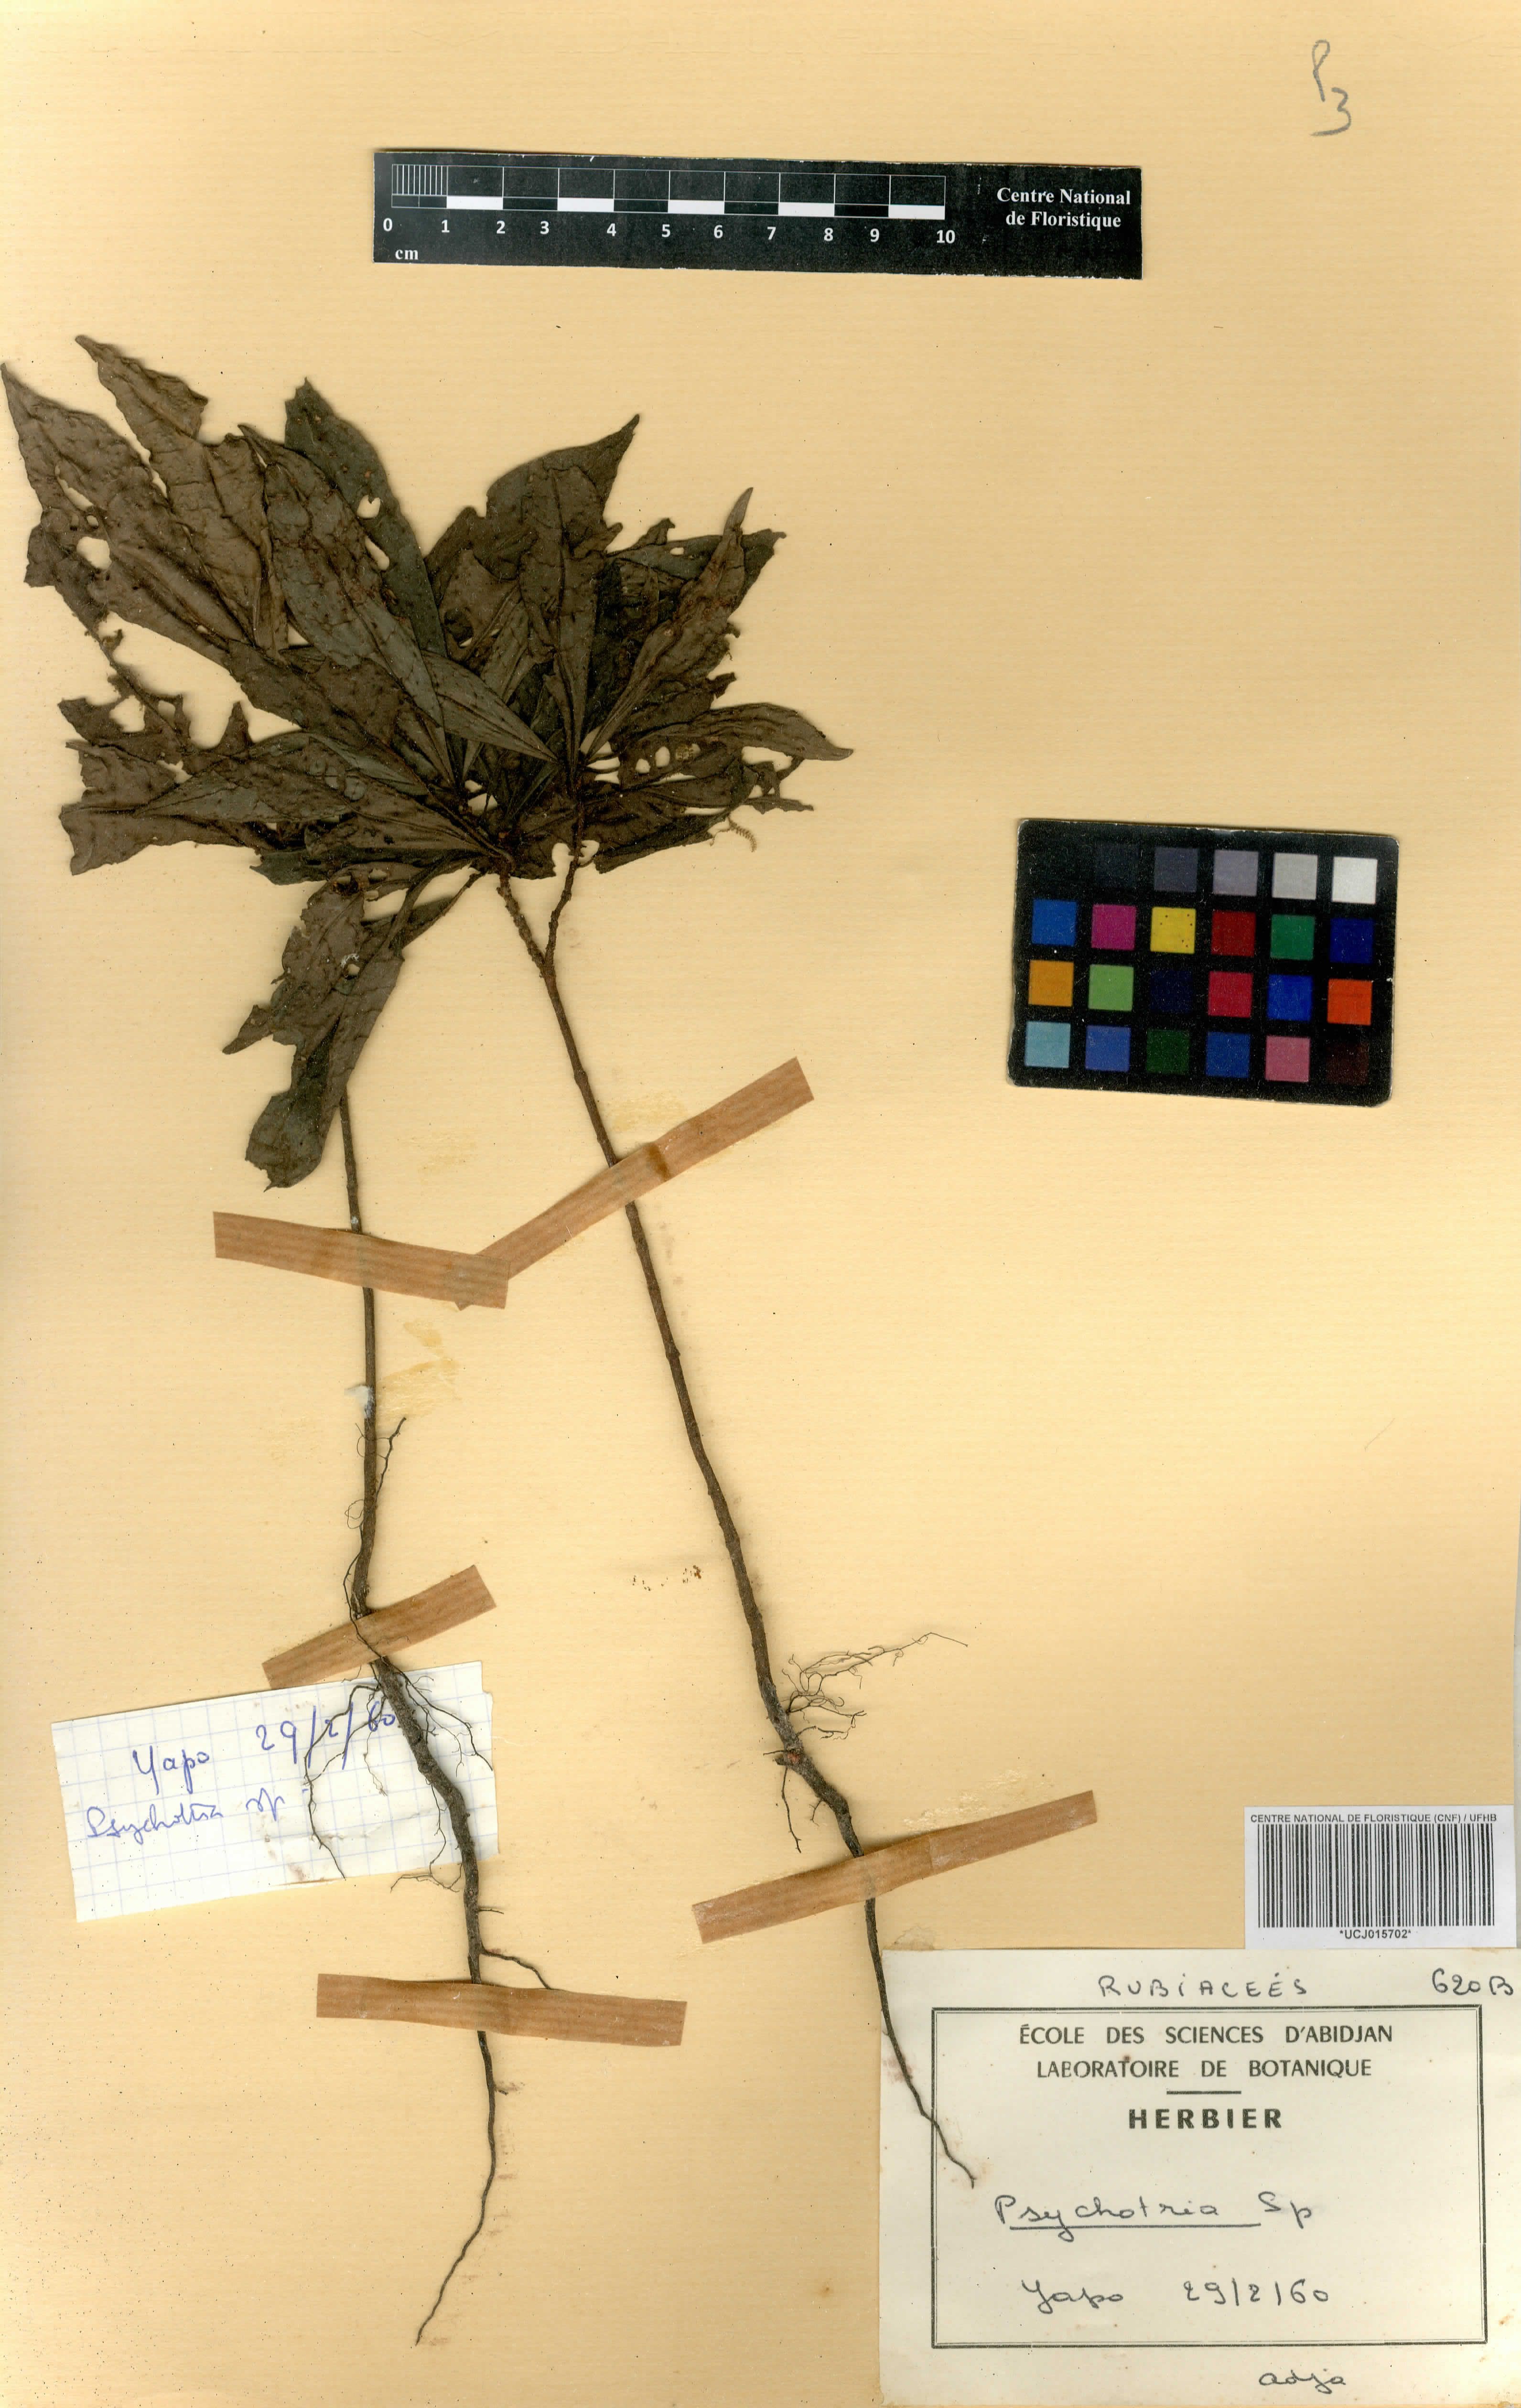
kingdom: Plantae
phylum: Tracheophyta
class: Magnoliopsida
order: Gentianales
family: Rubiaceae
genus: Psychotria
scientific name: Psychotria
